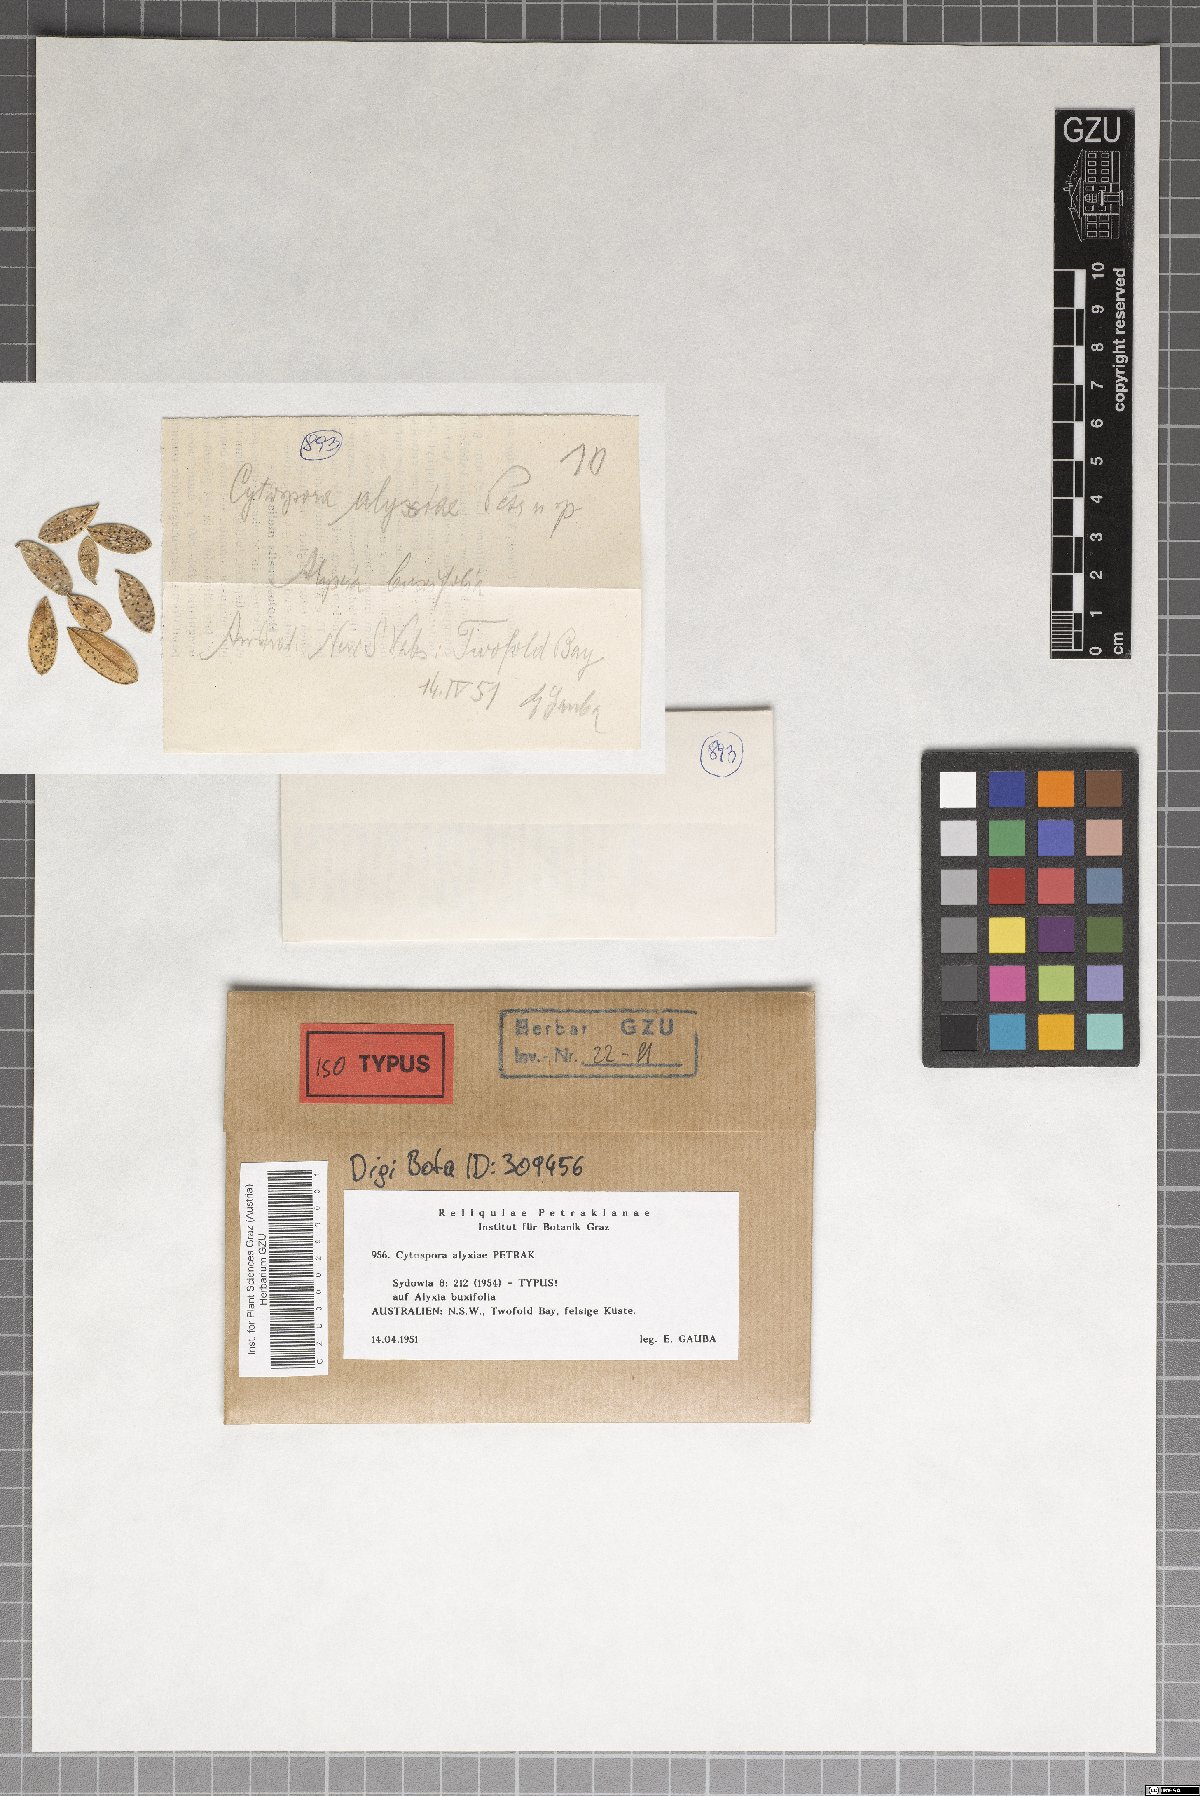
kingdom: Fungi
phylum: Ascomycota
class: Sordariomycetes
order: Diaporthales
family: Valsaceae
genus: Cytospora
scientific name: Cytospora alyxiae
